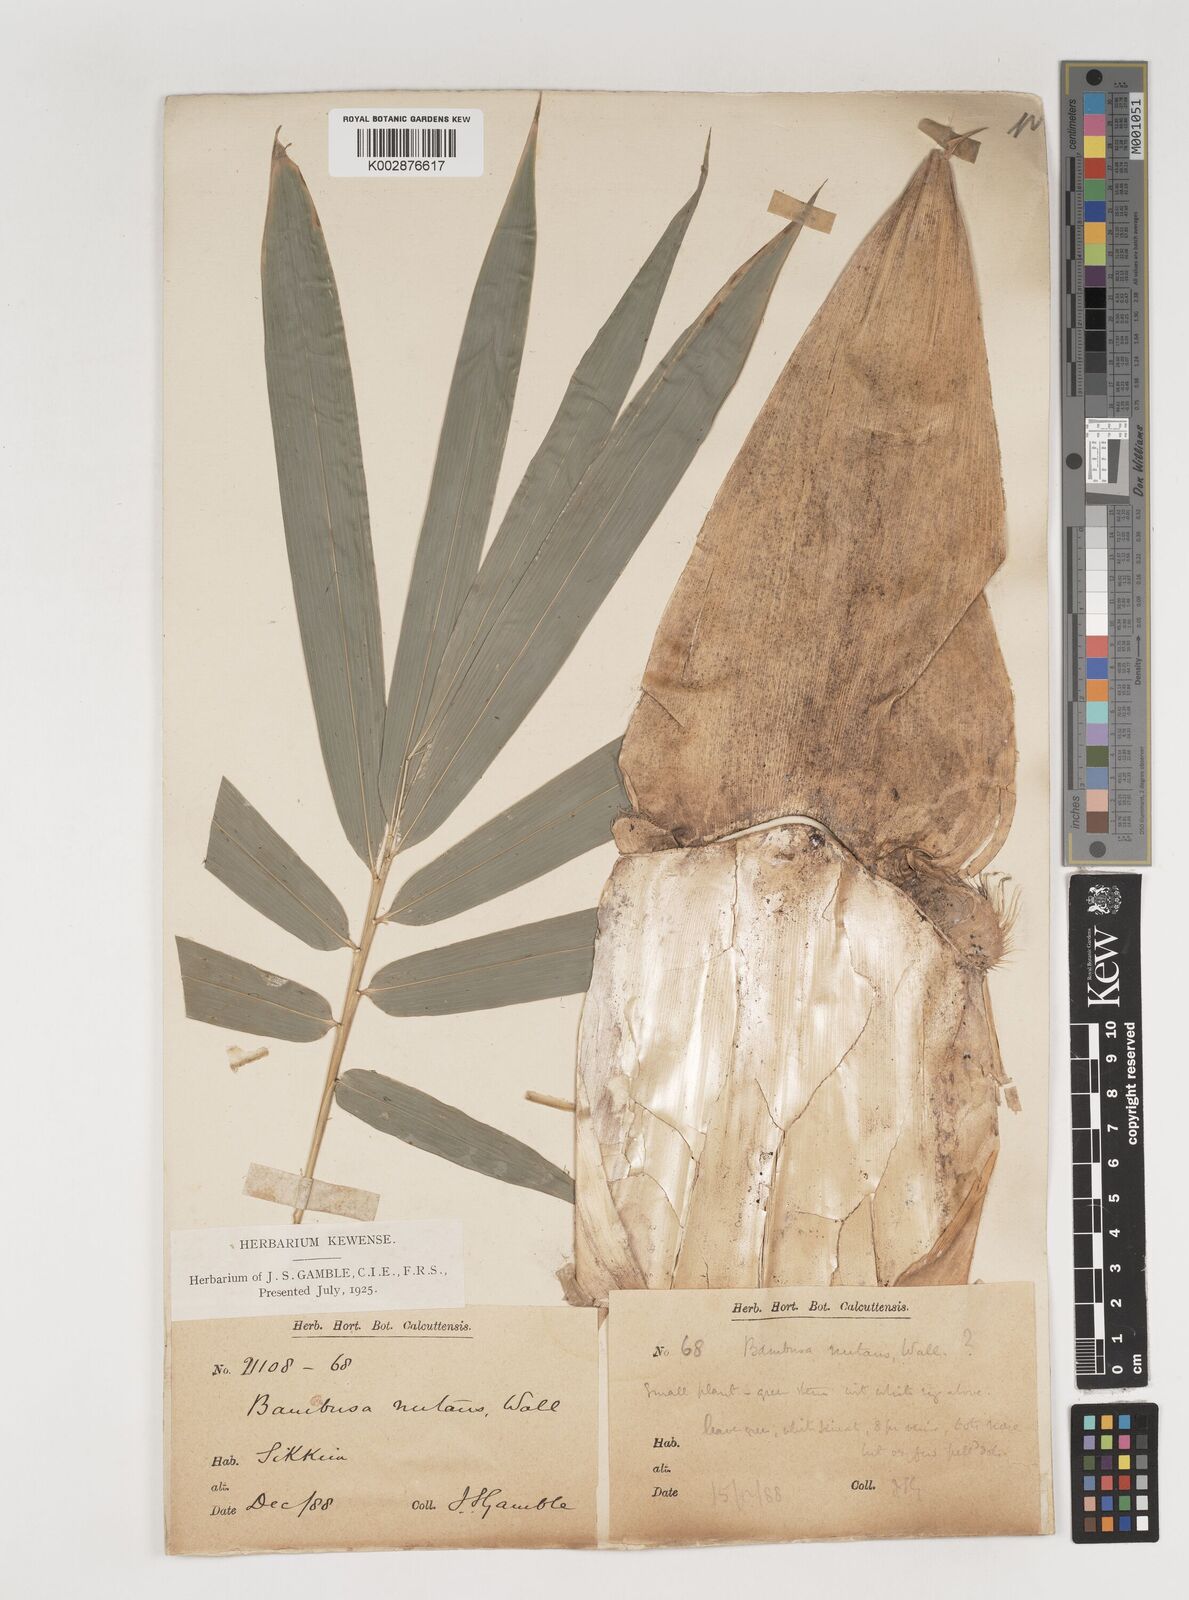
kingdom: Plantae
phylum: Tracheophyta
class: Liliopsida
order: Poales
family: Poaceae
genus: Bambusa
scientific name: Bambusa nutans
